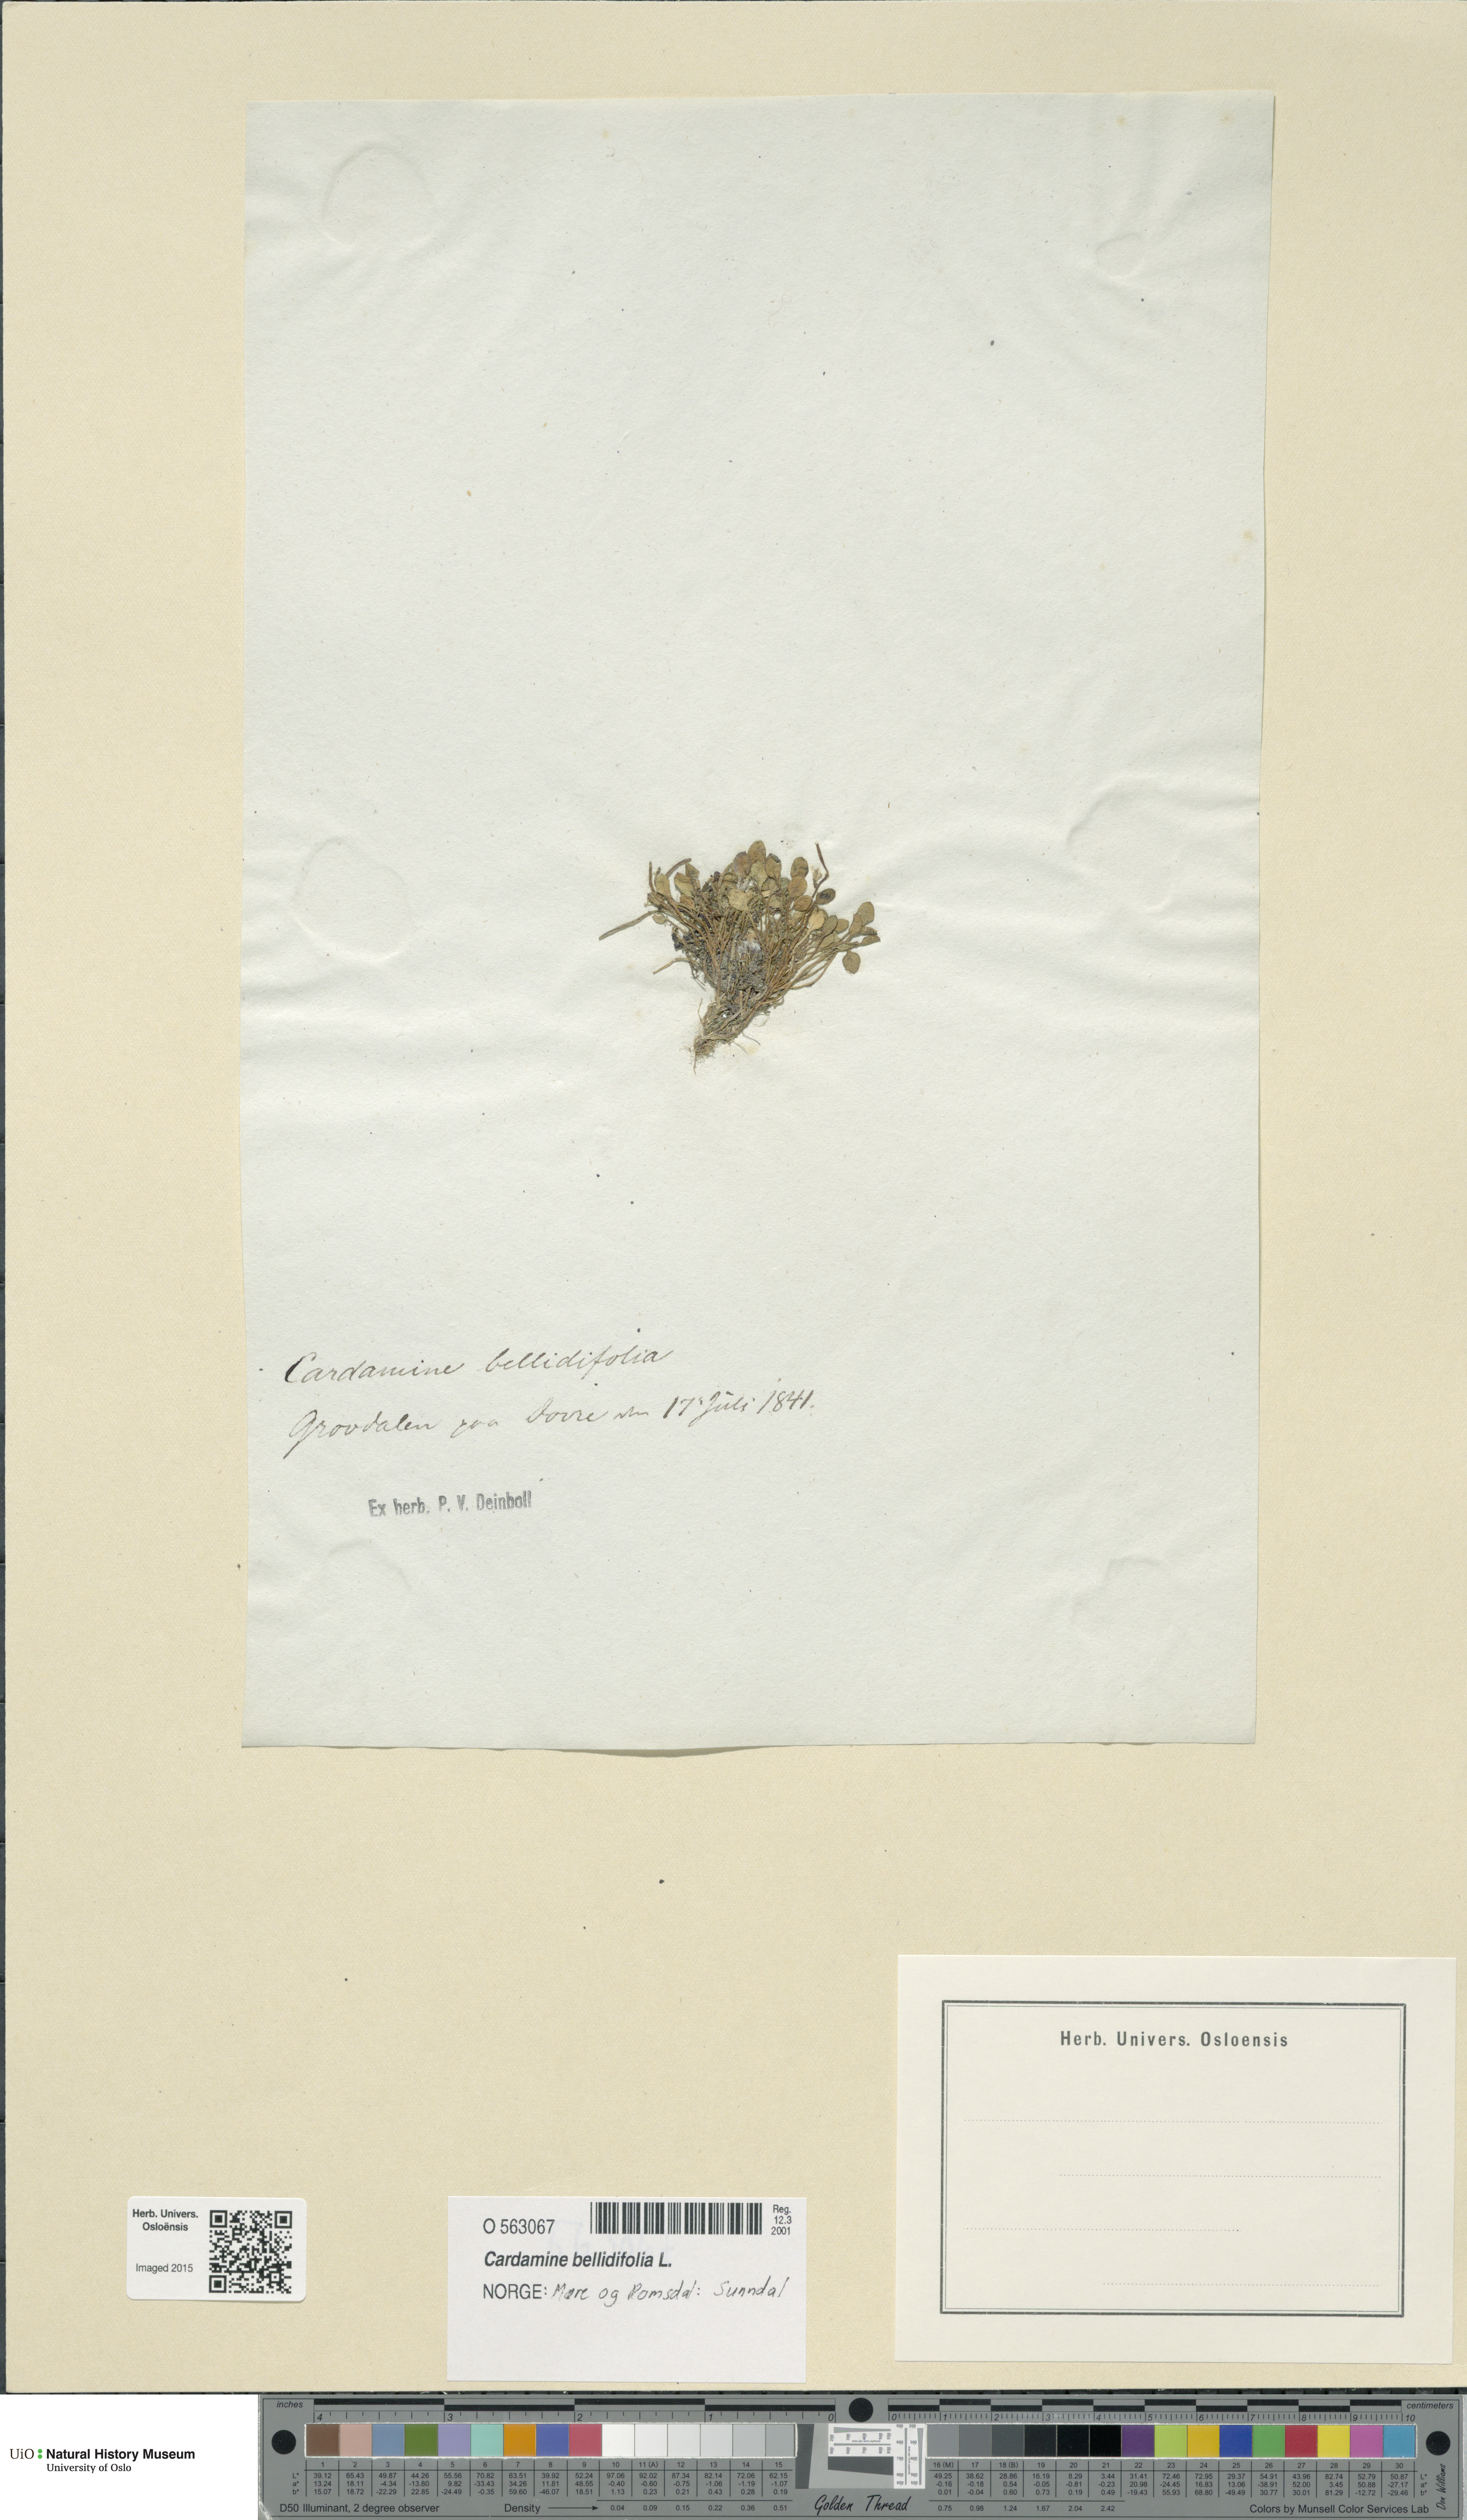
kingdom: Plantae
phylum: Tracheophyta
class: Magnoliopsida
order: Brassicales
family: Brassicaceae
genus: Cardamine
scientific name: Cardamine bellidifolia
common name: Alpine bittercress
